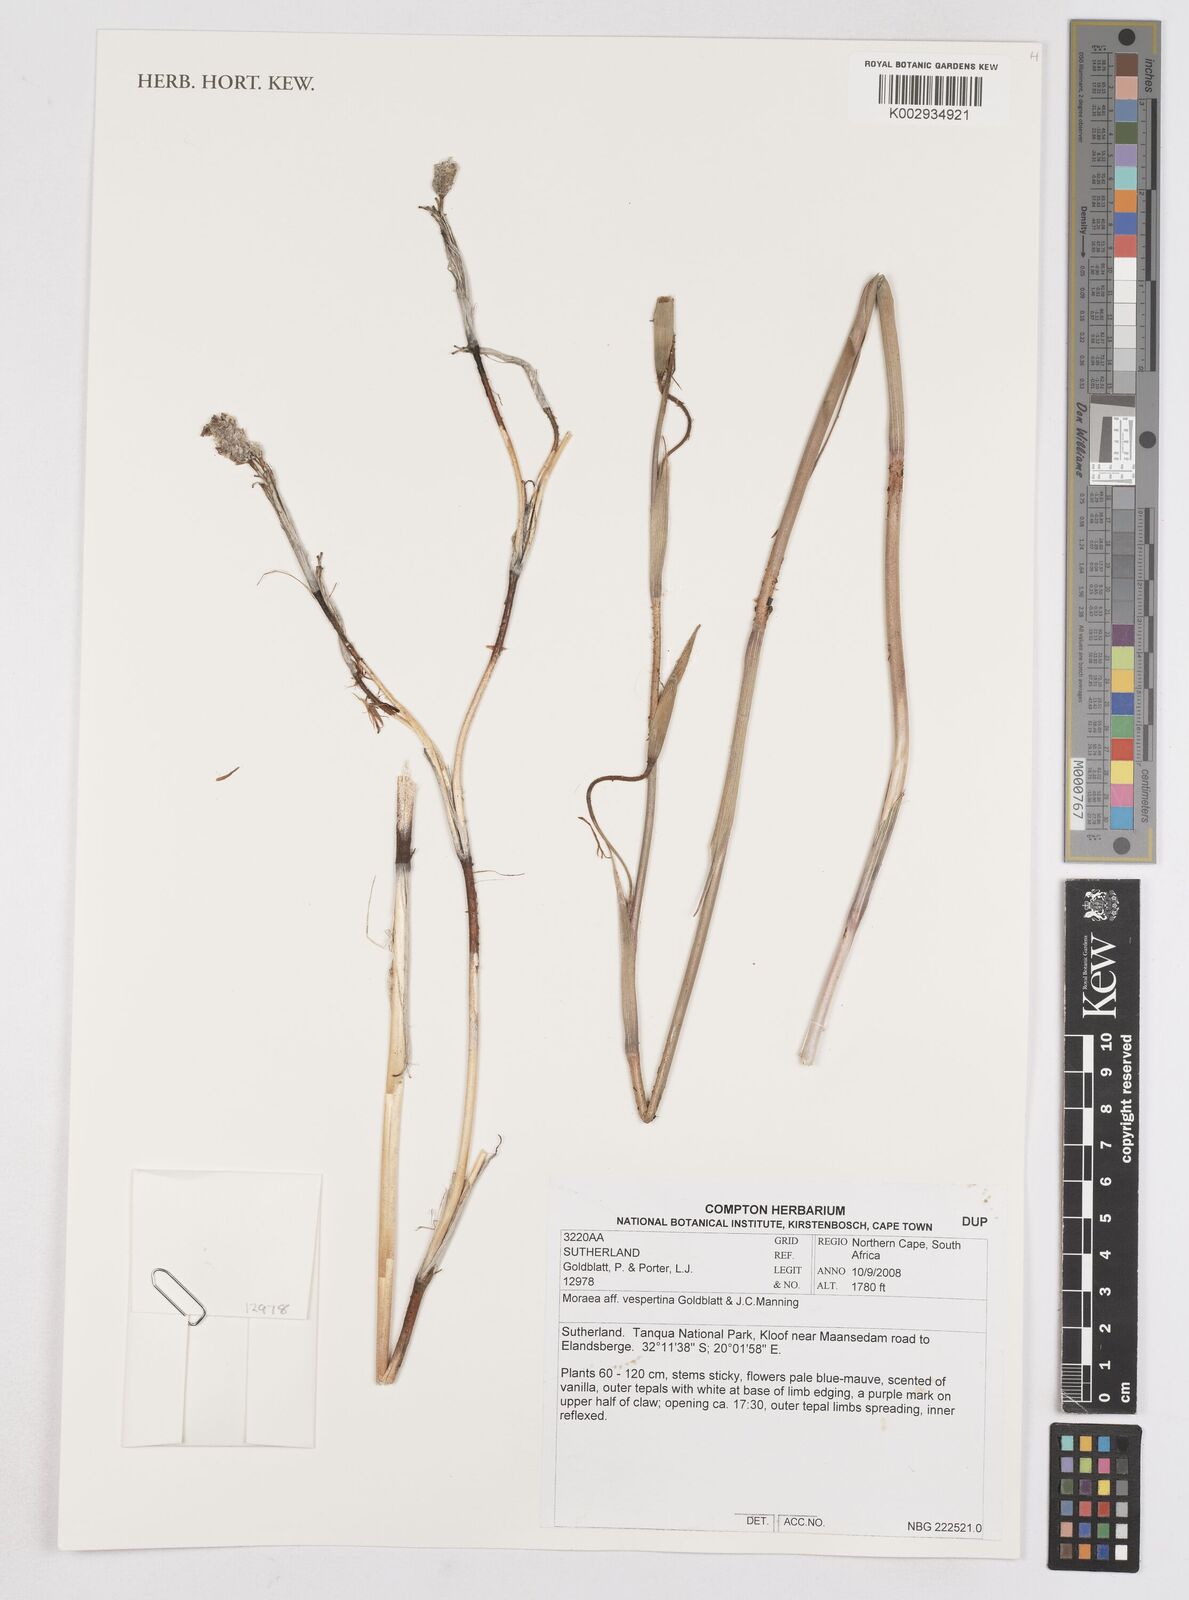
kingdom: Plantae
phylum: Tracheophyta
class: Liliopsida
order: Asparagales
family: Iridaceae
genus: Moraea
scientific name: Moraea vespertina
